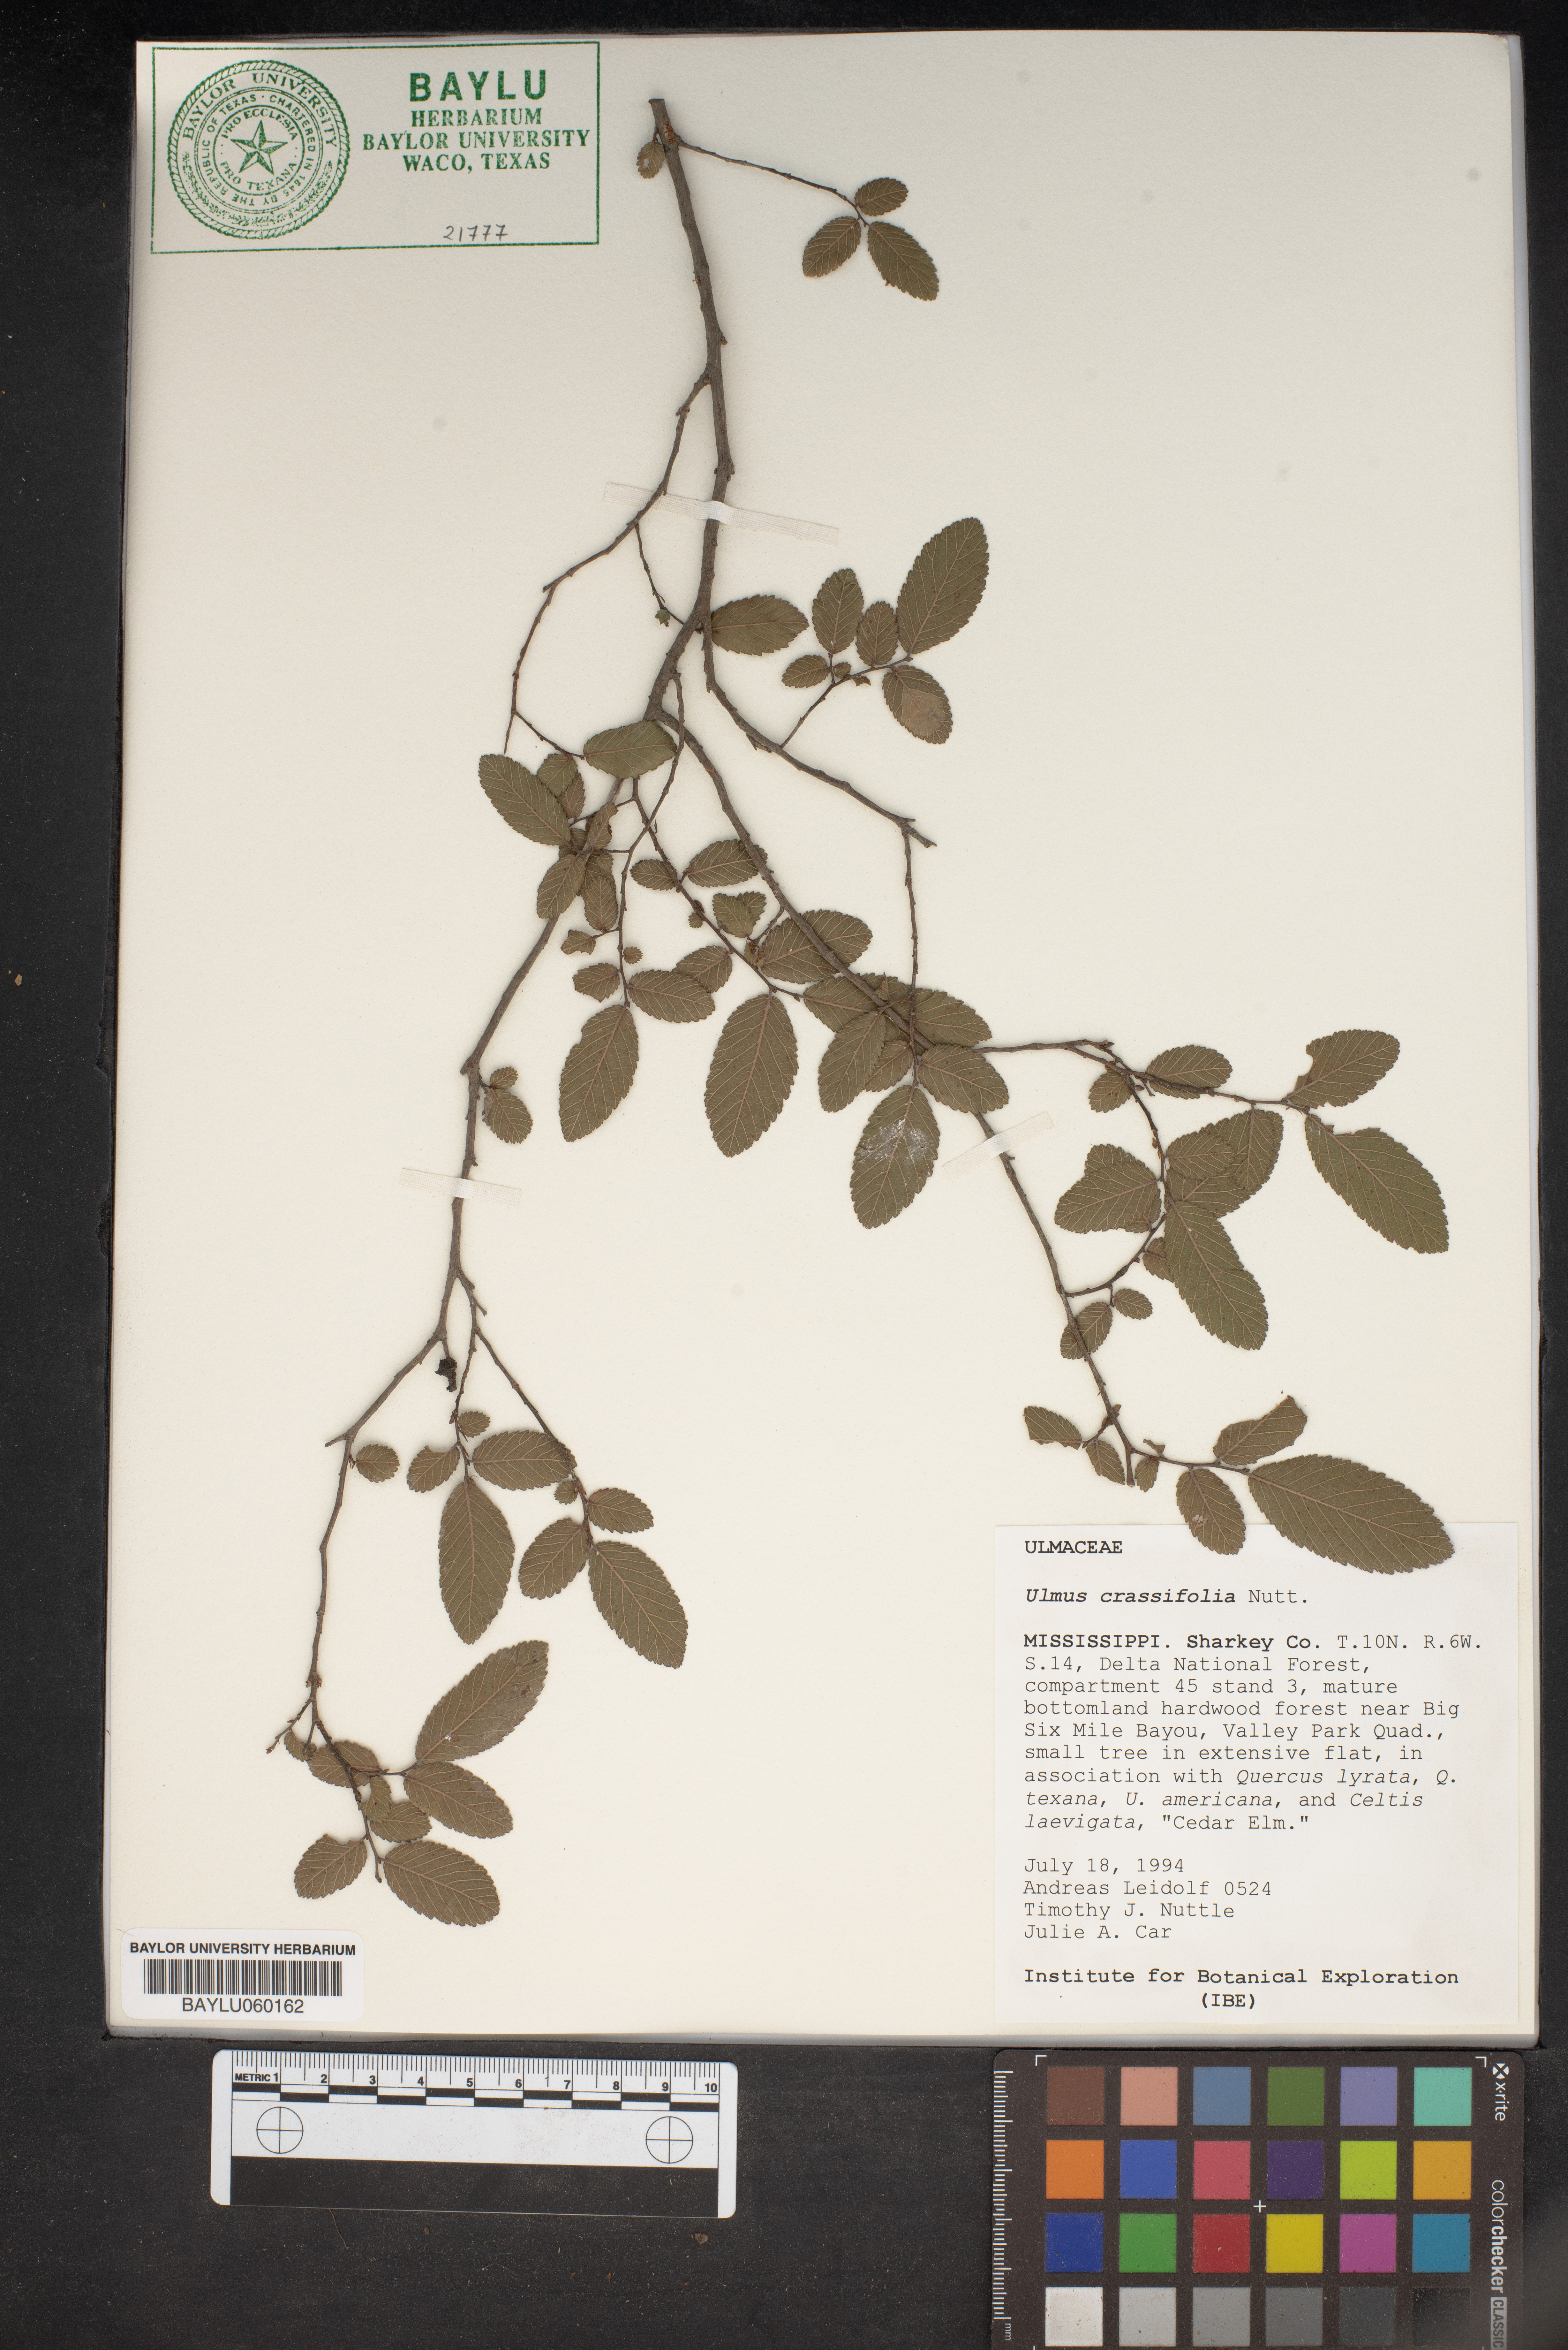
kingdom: Plantae
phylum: Tracheophyta
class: Magnoliopsida
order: Rosales
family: Ulmaceae
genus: Ulmus
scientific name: Ulmus crassifolia
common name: Basket elm
